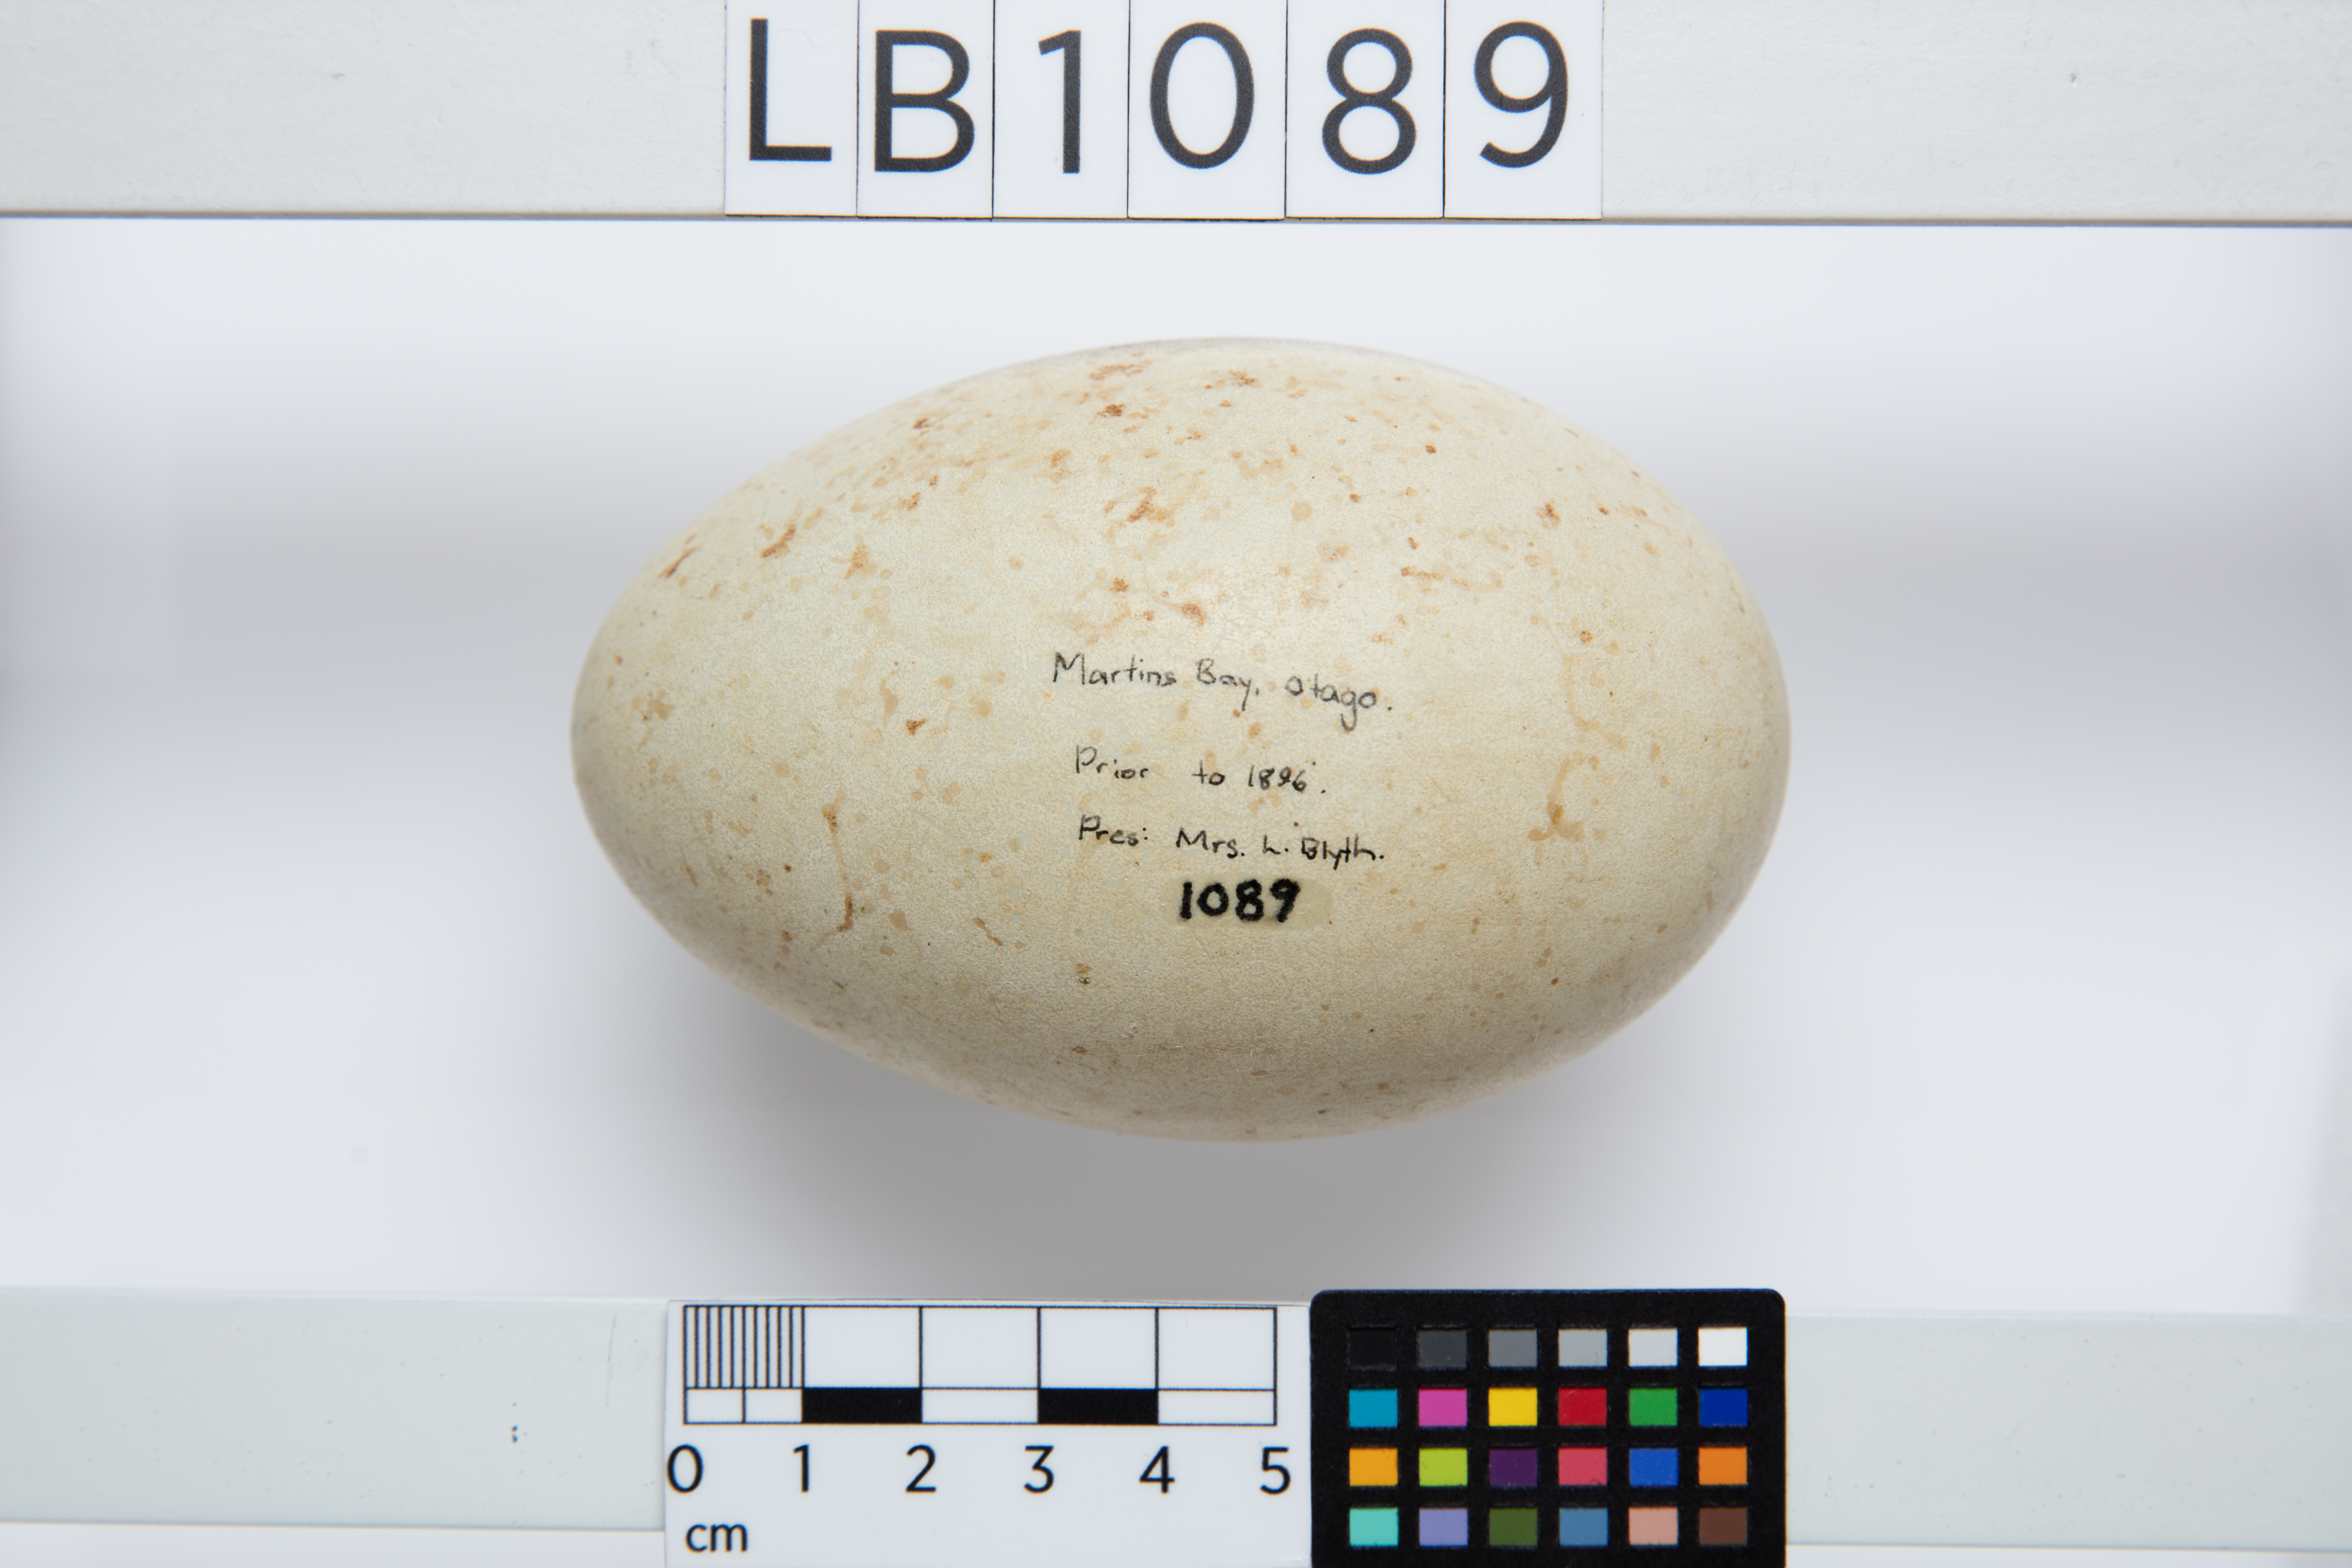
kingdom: Animalia
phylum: Chordata
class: Aves
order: Anseriformes
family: Anatidae
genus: Cygnus
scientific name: Cygnus atratus
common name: Black swan
